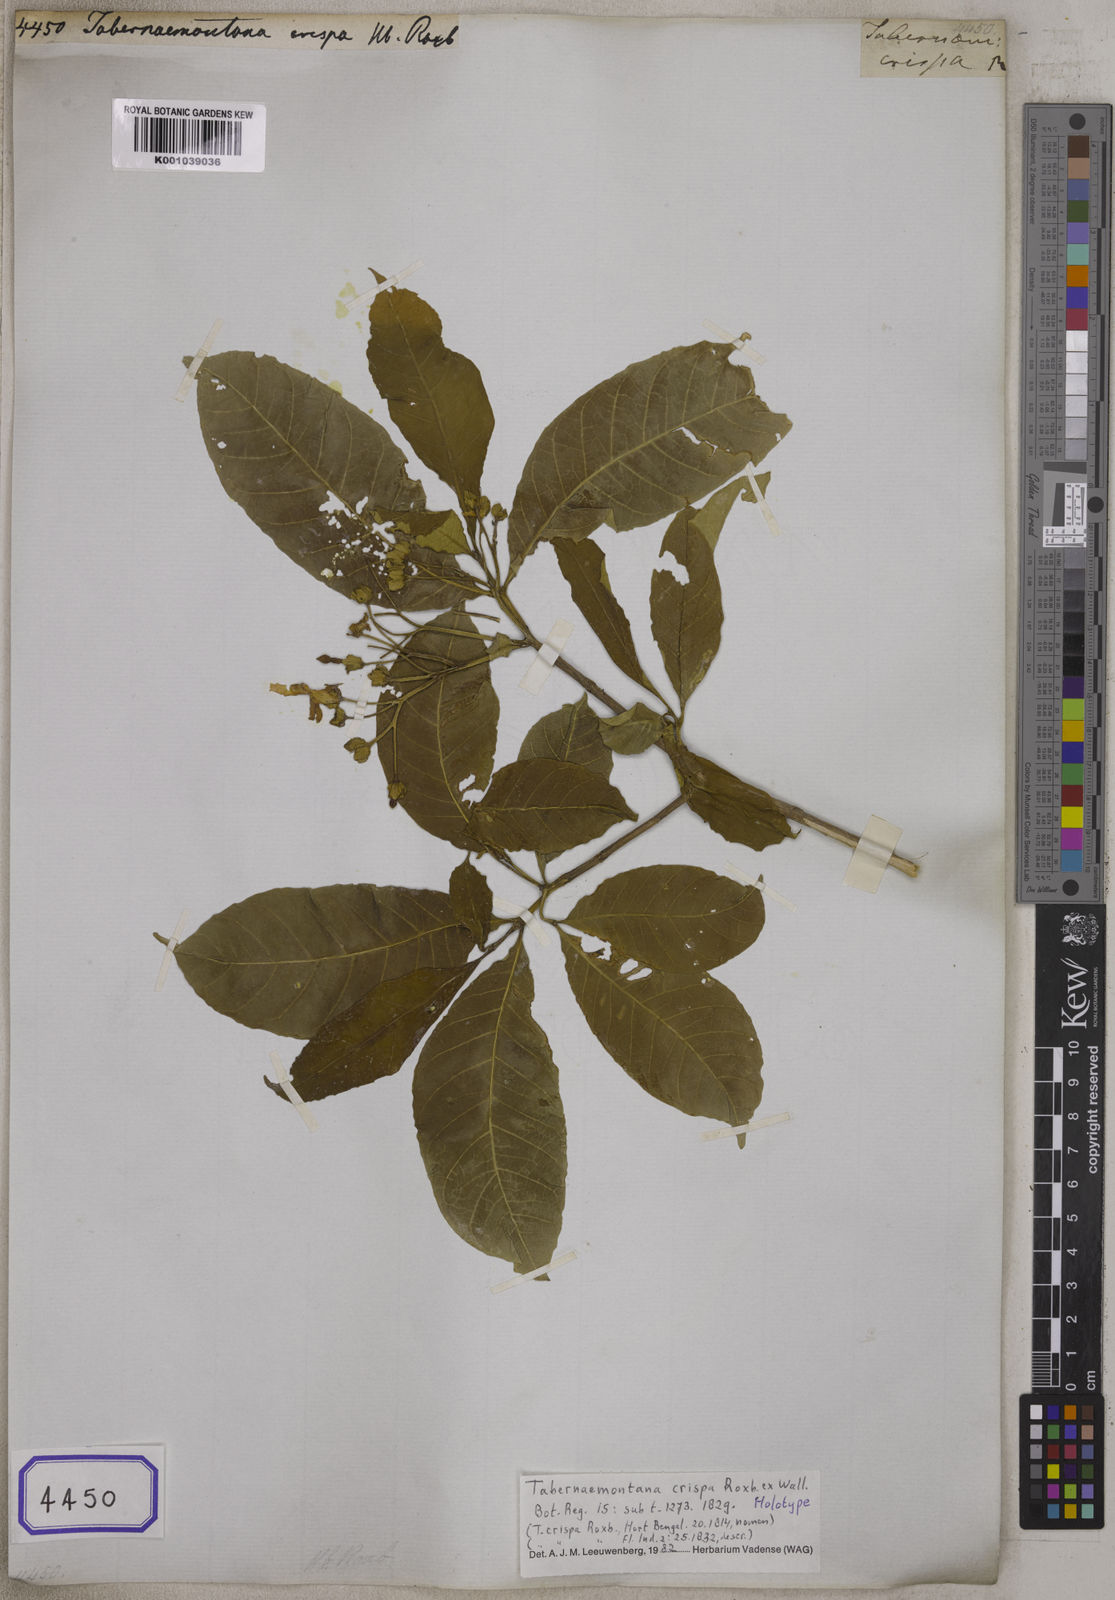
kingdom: Plantae
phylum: Tracheophyta
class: Magnoliopsida
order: Gentianales
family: Apocynaceae
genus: Tabernaemontana
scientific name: Tabernaemontana alternifolia
